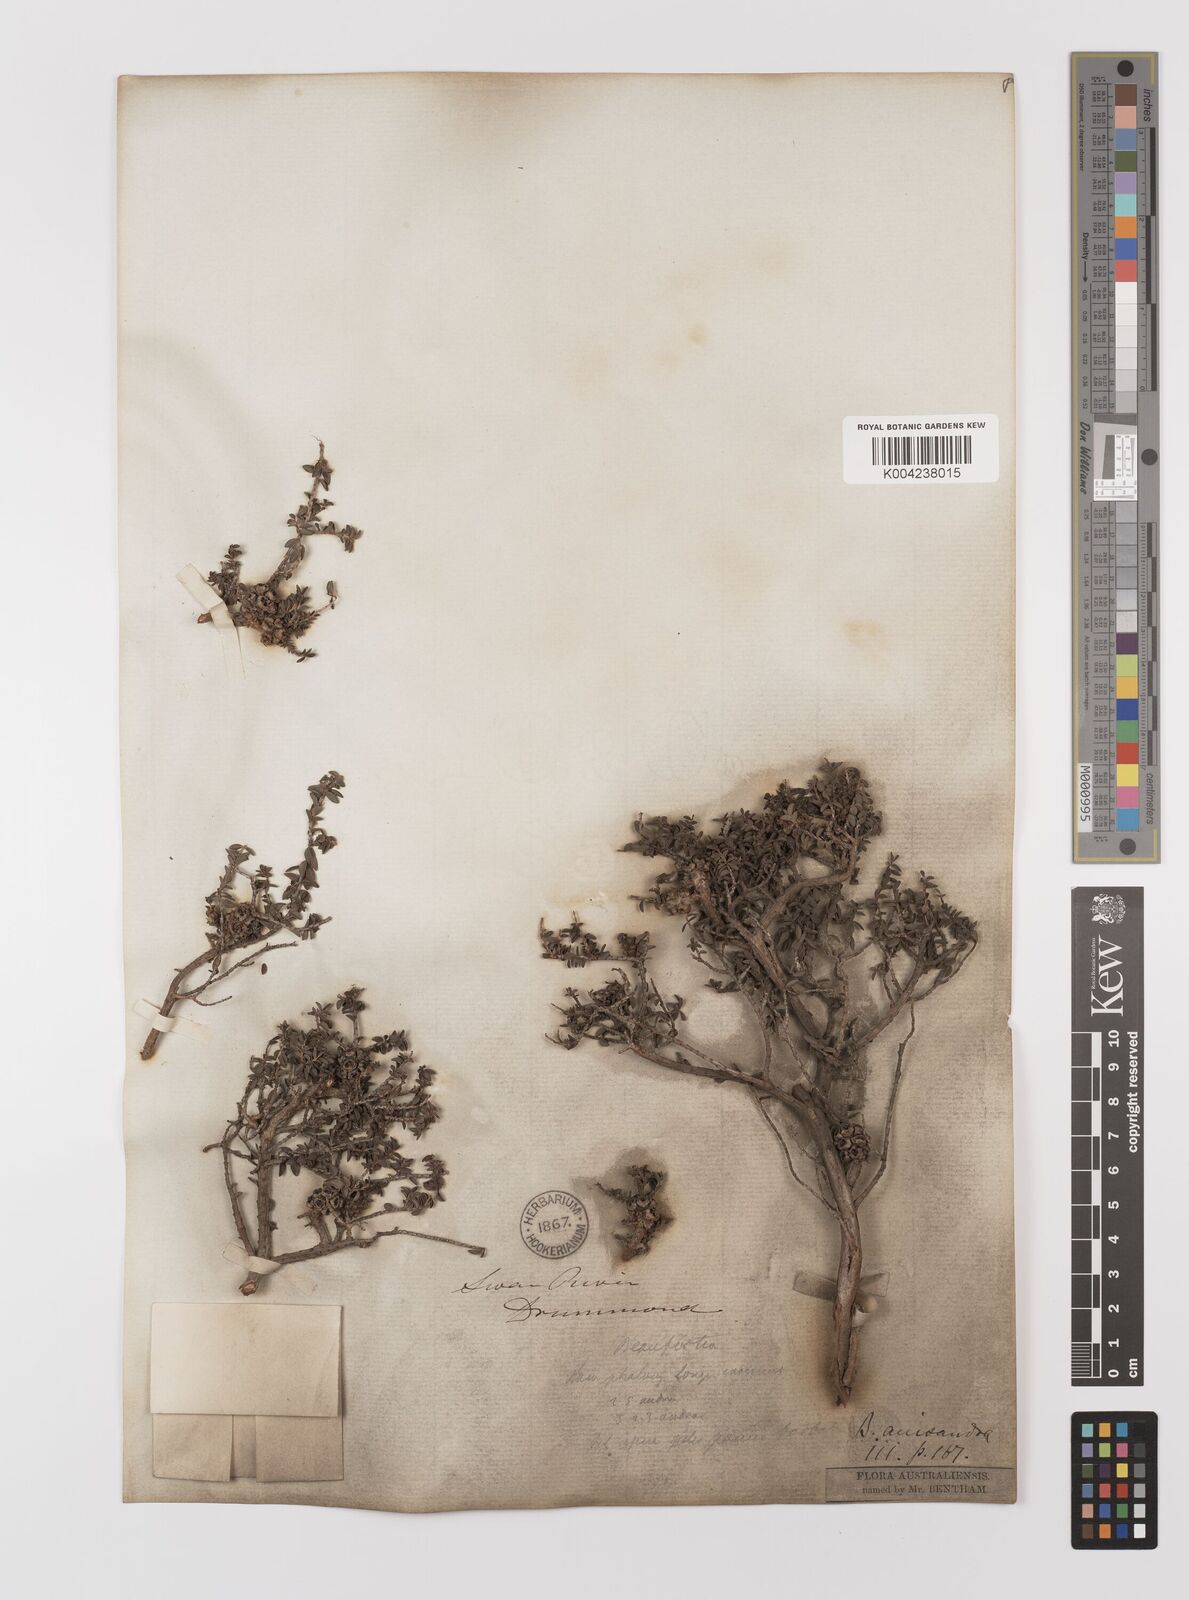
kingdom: Plantae
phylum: Tracheophyta
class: Magnoliopsida
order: Myrtales
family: Myrtaceae
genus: Melaleuca
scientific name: Melaleuca anisandra
